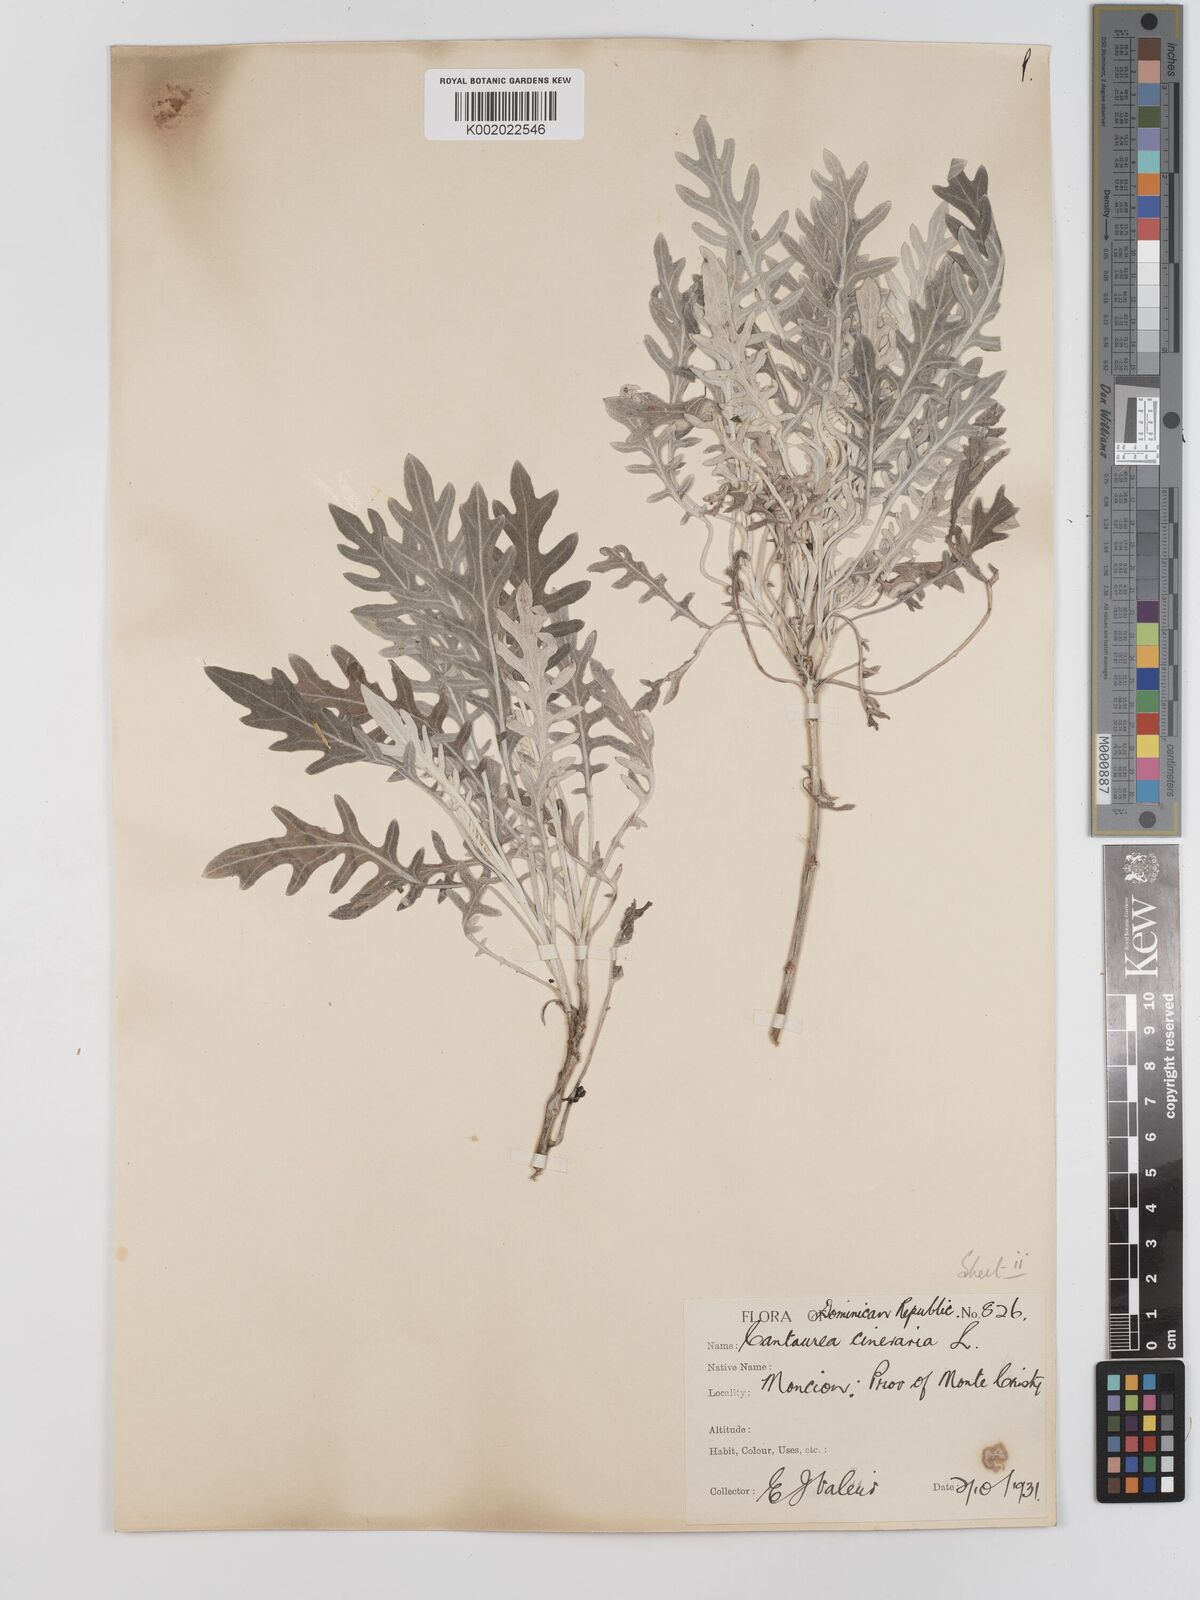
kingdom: Plantae
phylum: Tracheophyta
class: Magnoliopsida
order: Asterales
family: Asteraceae
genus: Centaurea
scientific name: Centaurea cineraria
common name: Dusty miller
